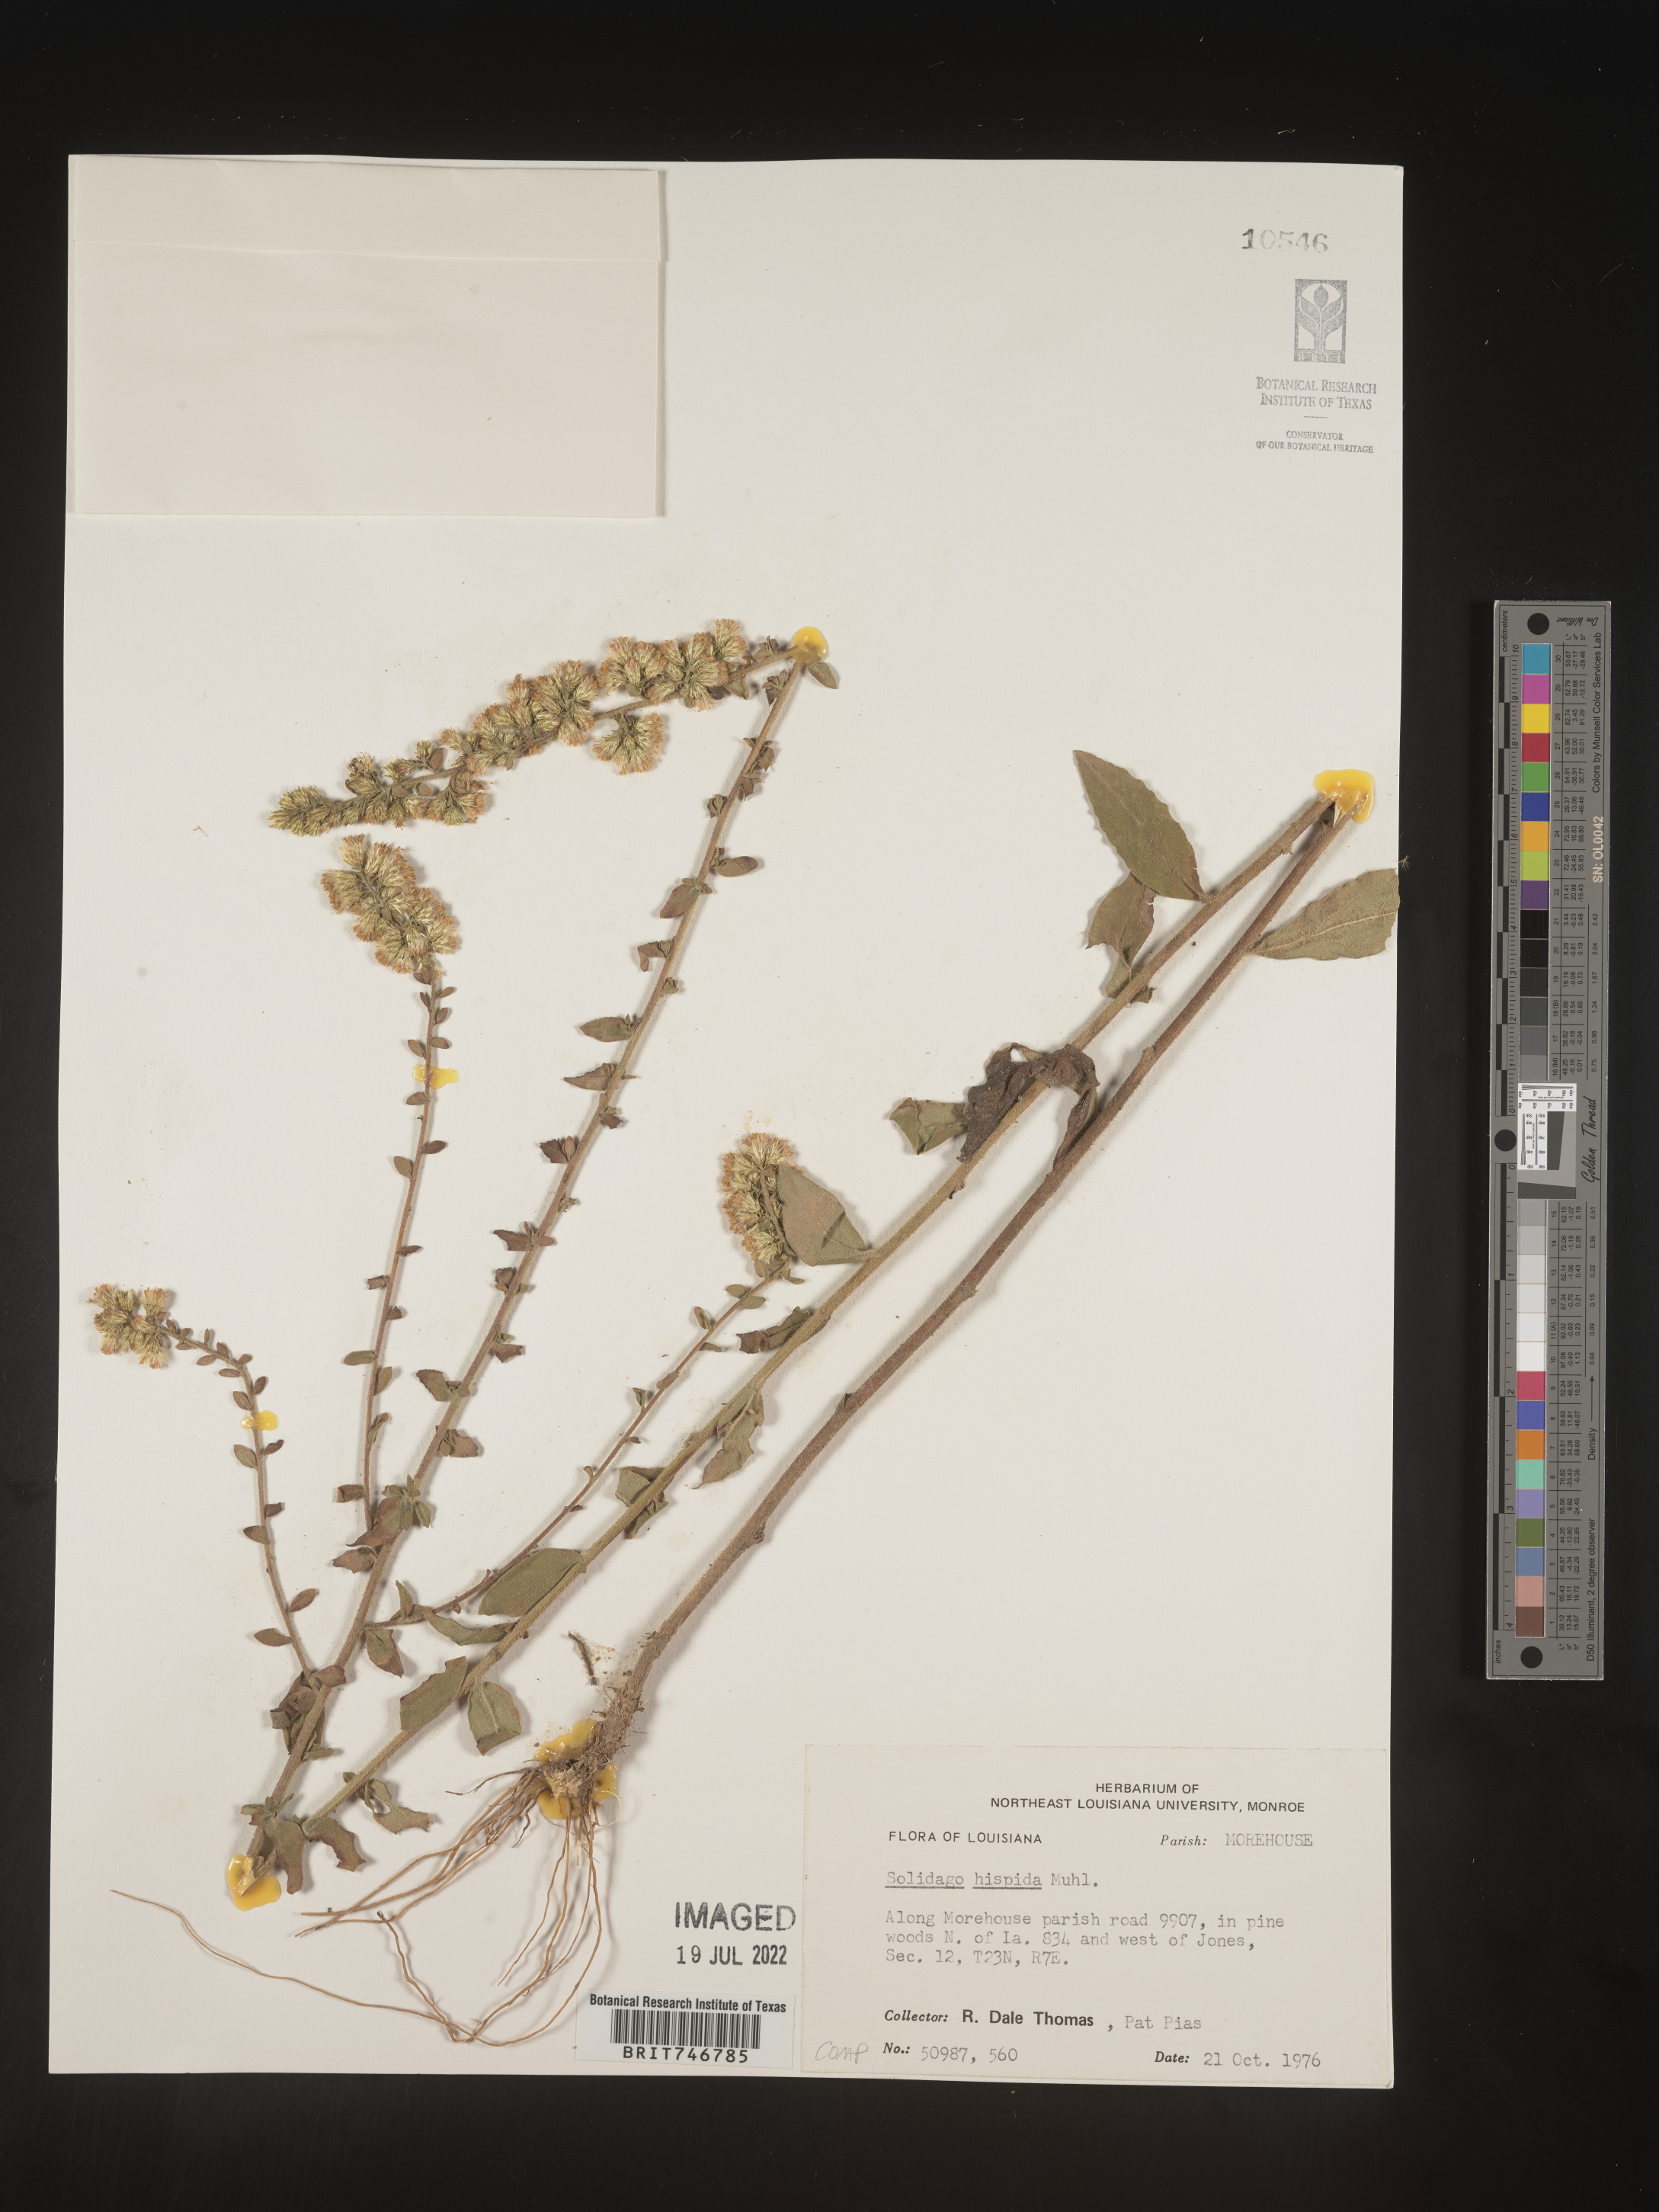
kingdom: Plantae
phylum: Tracheophyta
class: Magnoliopsida
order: Asterales
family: Asteraceae
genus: Solidago
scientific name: Solidago hispida
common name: Hairy goldenrod
